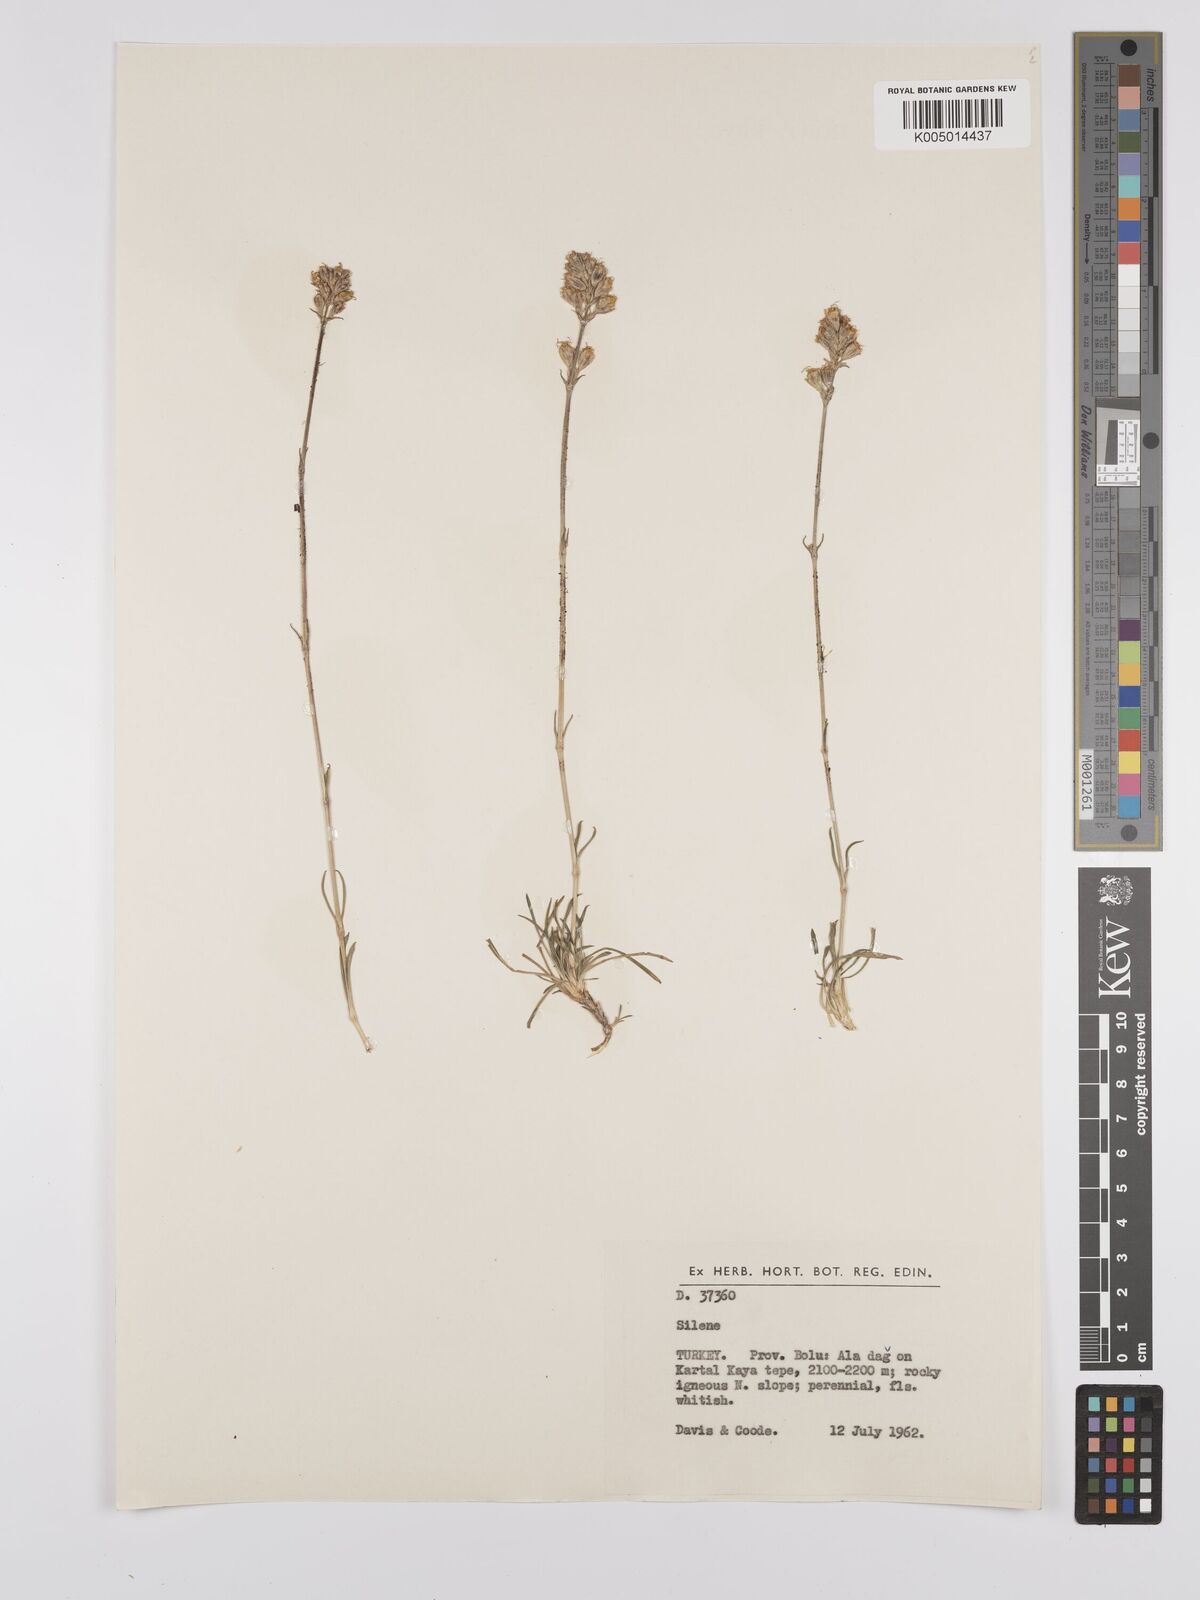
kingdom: Plantae
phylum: Tracheophyta
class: Magnoliopsida
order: Caryophyllales
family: Caryophyllaceae
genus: Silene
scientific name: Silene
